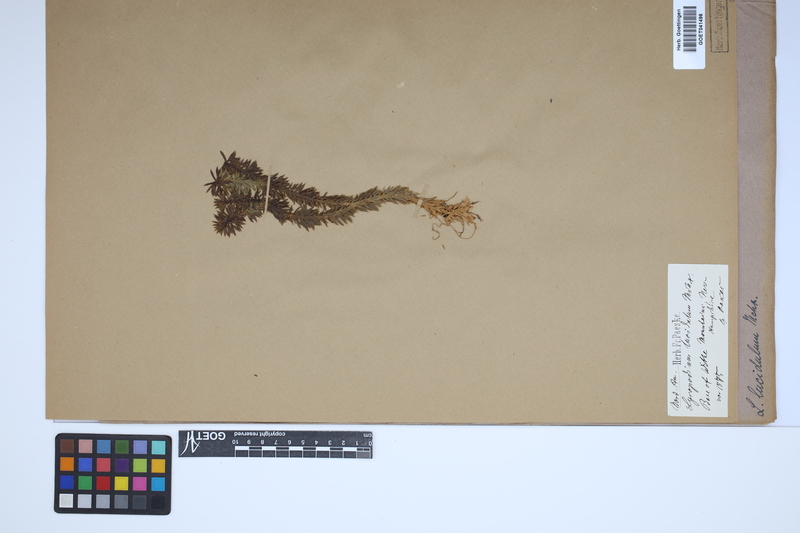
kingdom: Plantae
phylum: Tracheophyta
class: Lycopodiopsida
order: Lycopodiales
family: Lycopodiaceae
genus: Huperzia
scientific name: Huperzia lucidula
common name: Shining clubmoss
